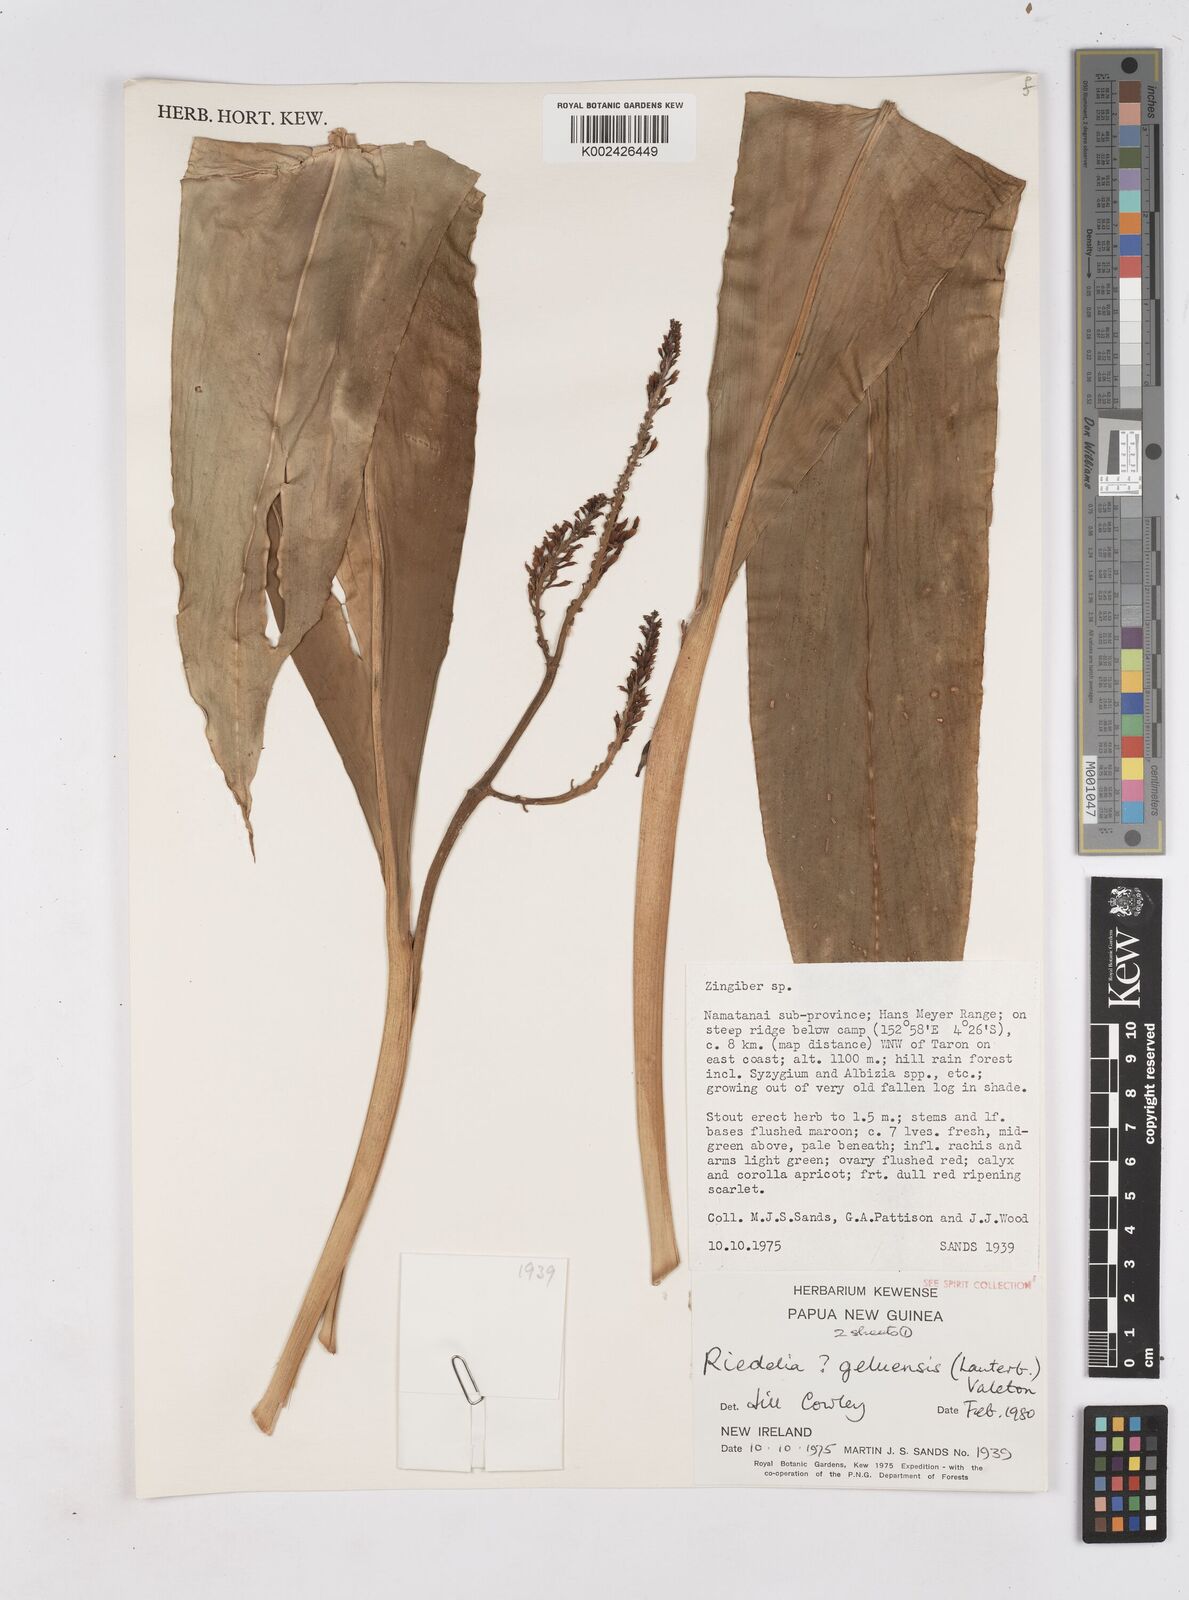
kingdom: Plantae
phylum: Tracheophyta
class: Liliopsida
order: Zingiberales
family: Zingiberaceae
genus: Riedelia
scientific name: Riedelia geluensis
